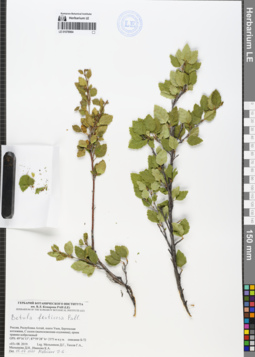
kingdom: Plantae
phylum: Tracheophyta
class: Magnoliopsida
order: Fagales
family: Betulaceae
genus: Betula
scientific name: Betula fruticosa
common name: Japanese bog birch
